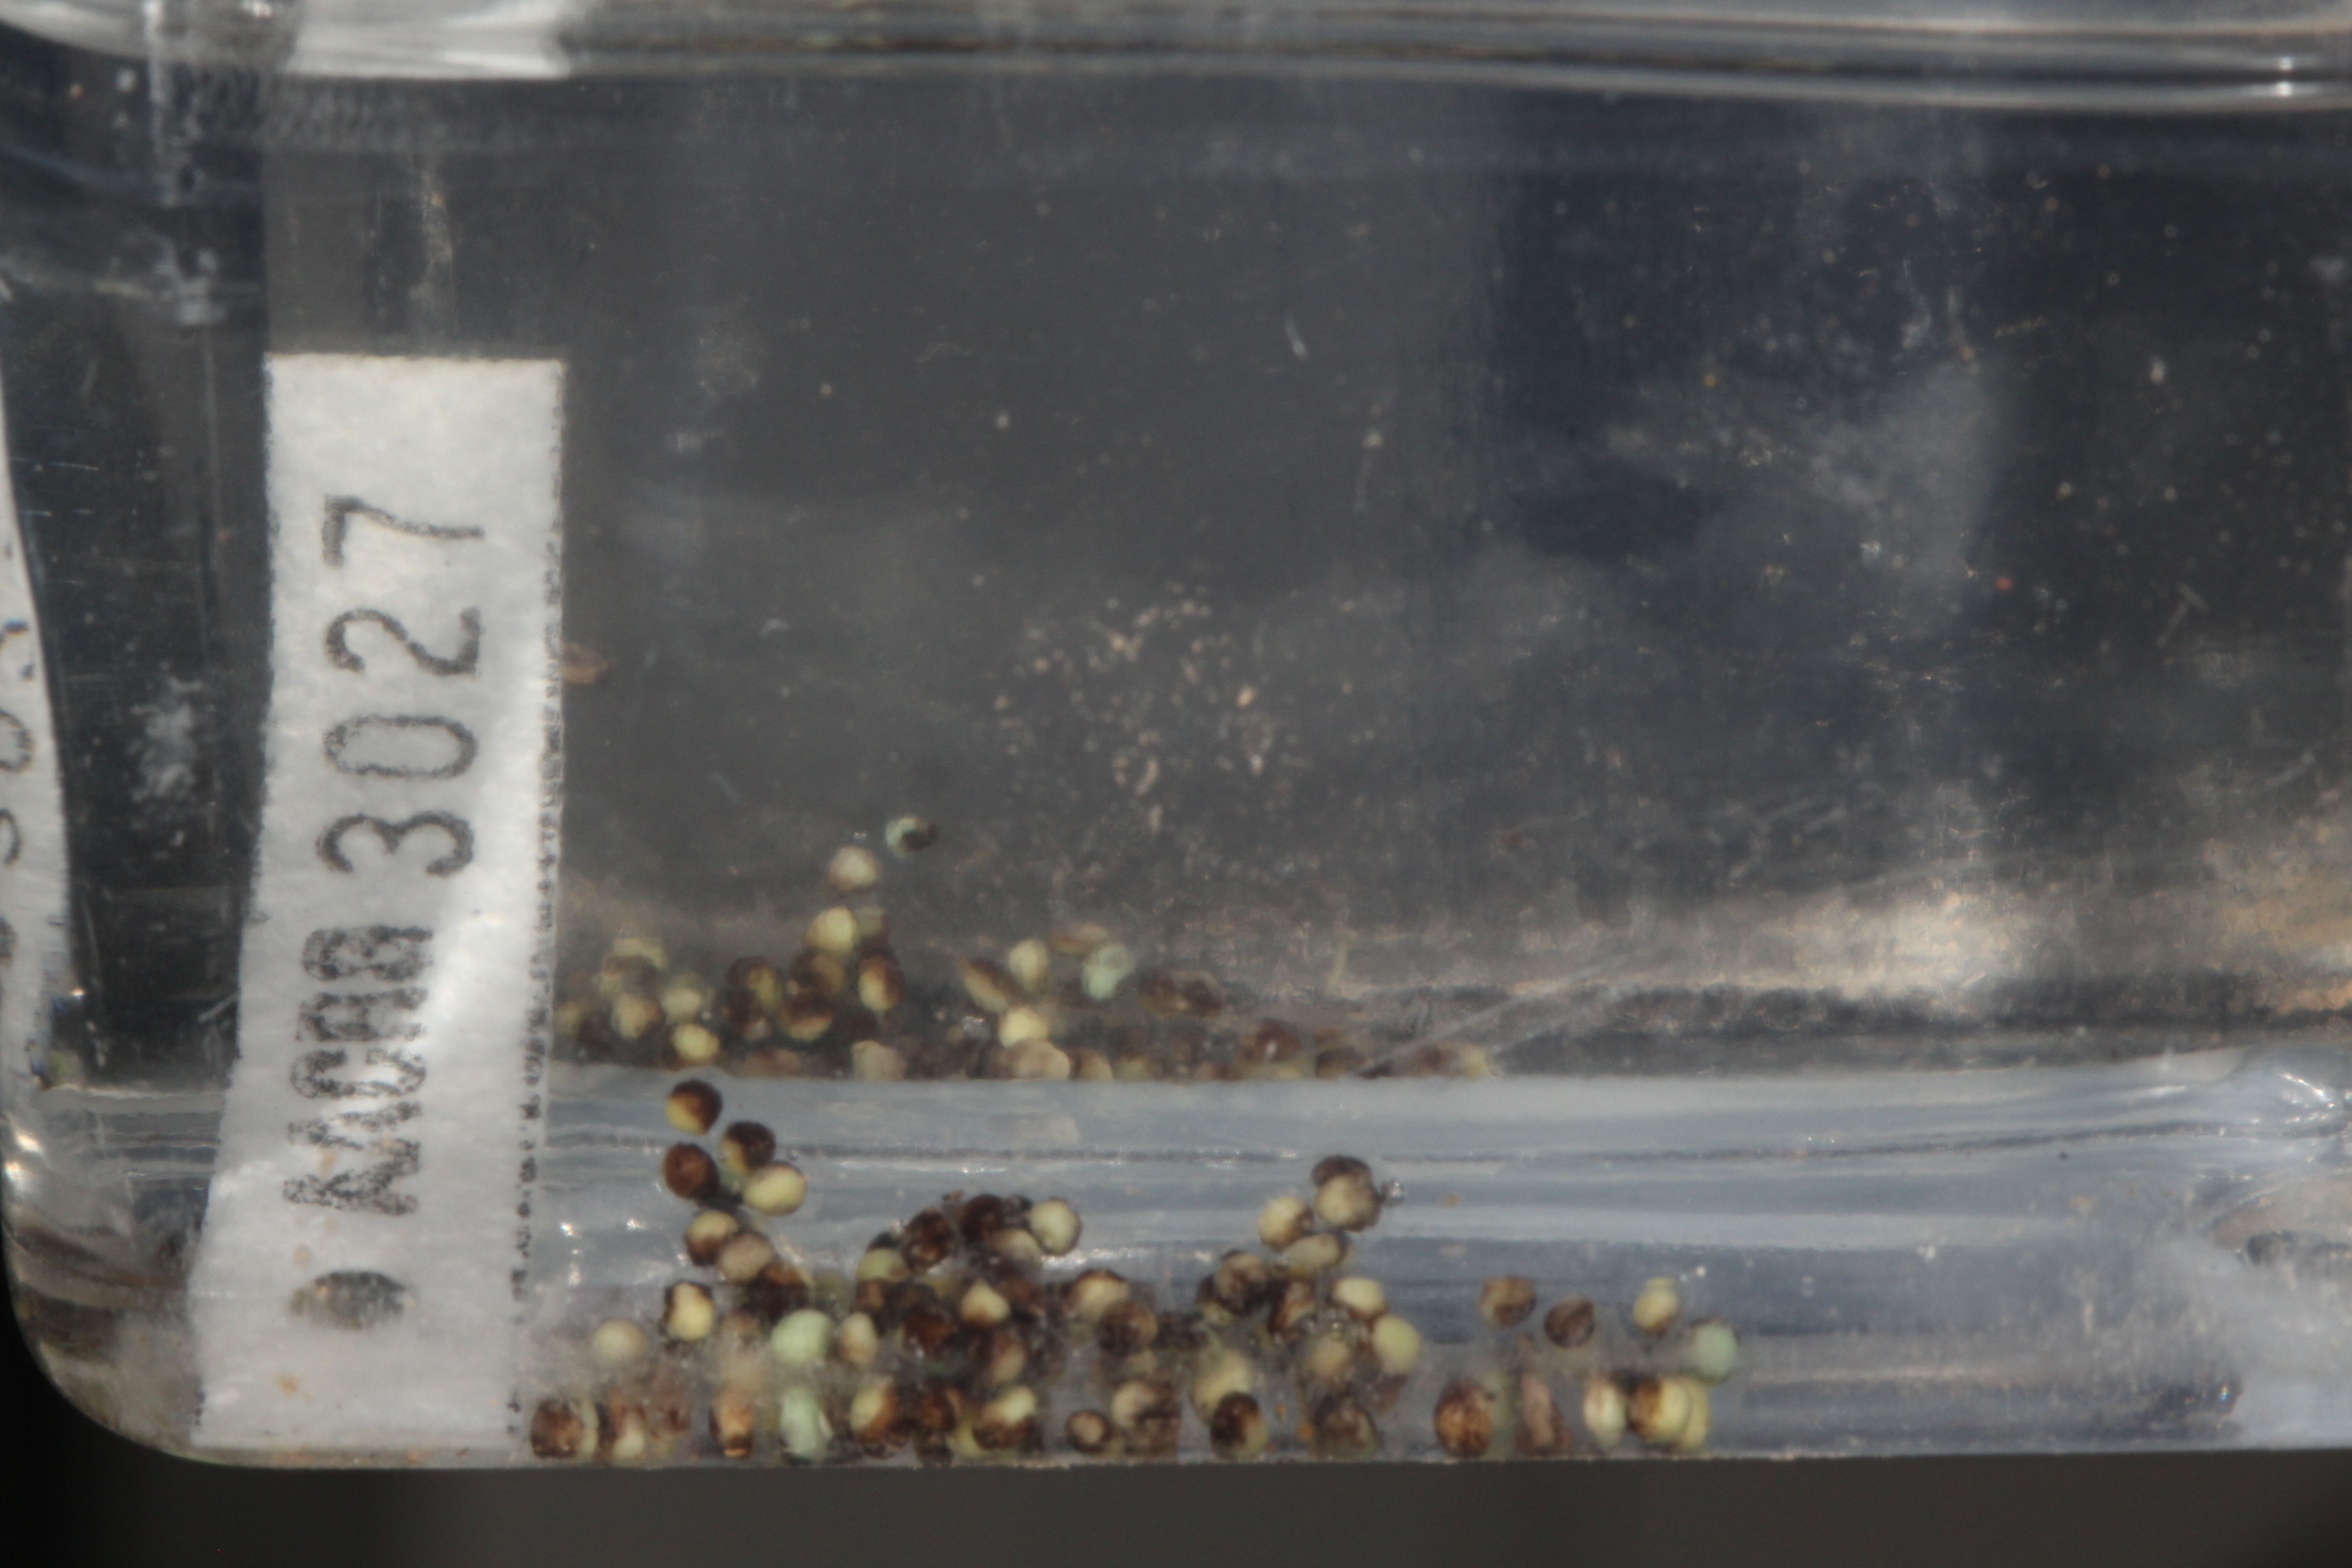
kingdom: Animalia
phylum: Chordata
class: Amphibia
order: Anura
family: Hyperoliidae
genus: Hyperolius
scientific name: Hyperolius marmoratus
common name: Painted reed frog
